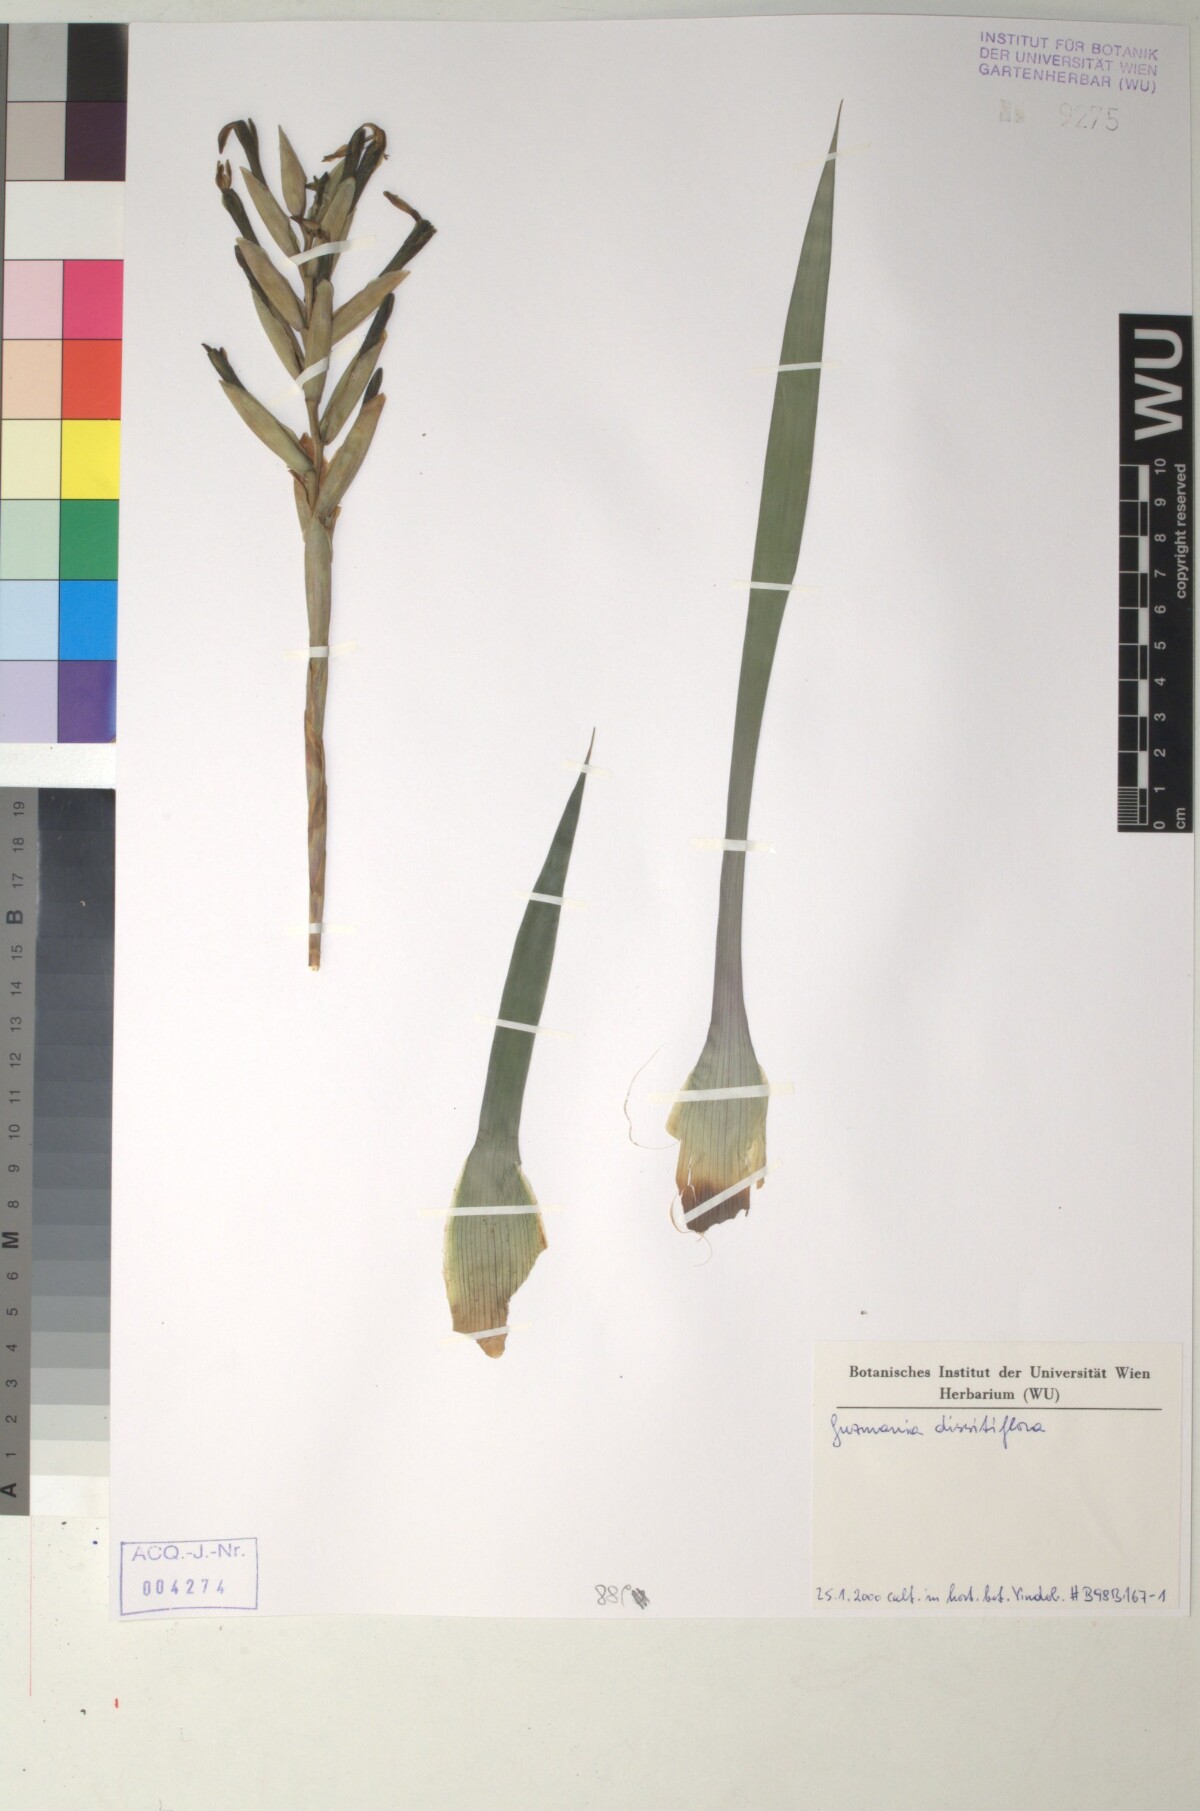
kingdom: Plantae
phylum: Tracheophyta
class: Liliopsida
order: Poales
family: Bromeliaceae
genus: Guzmania
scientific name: Guzmania dissitiflora
